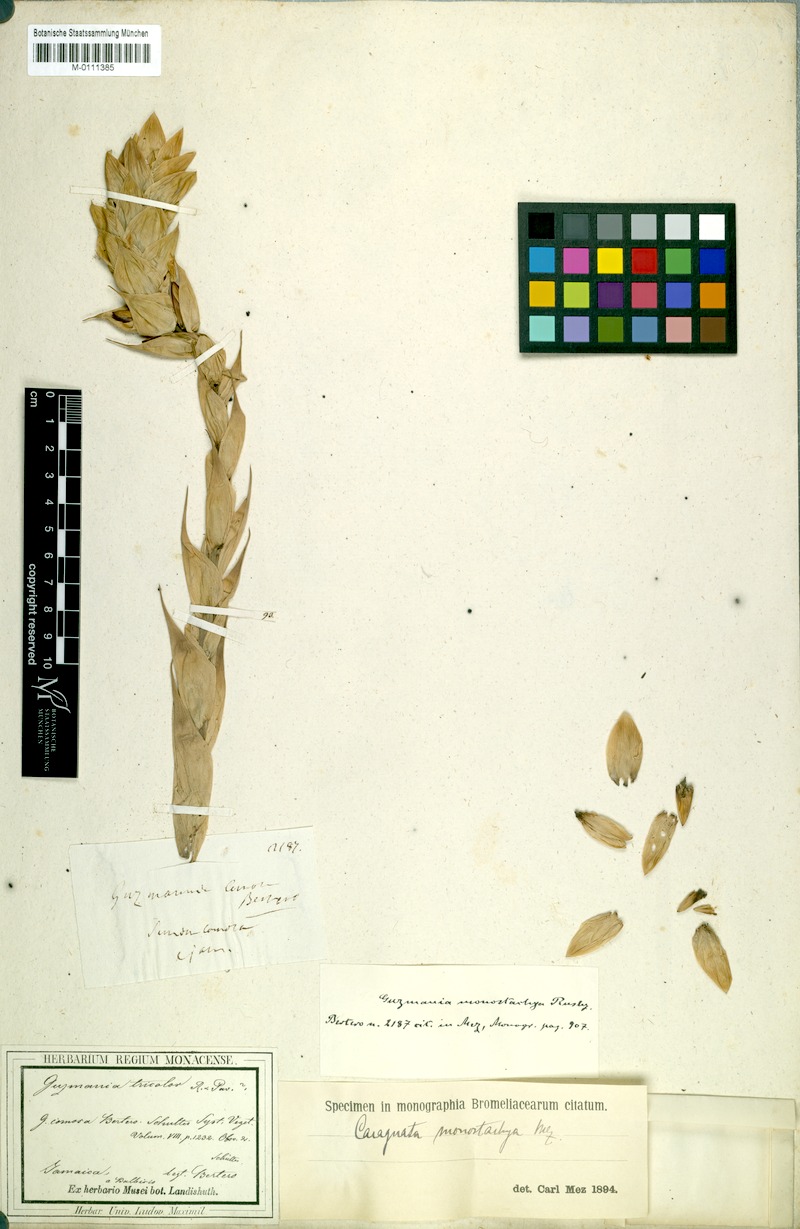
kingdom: Plantae
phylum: Tracheophyta
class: Liliopsida
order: Poales
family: Bromeliaceae
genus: Guzmania
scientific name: Guzmania monostachia
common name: West indian tufted airplant
